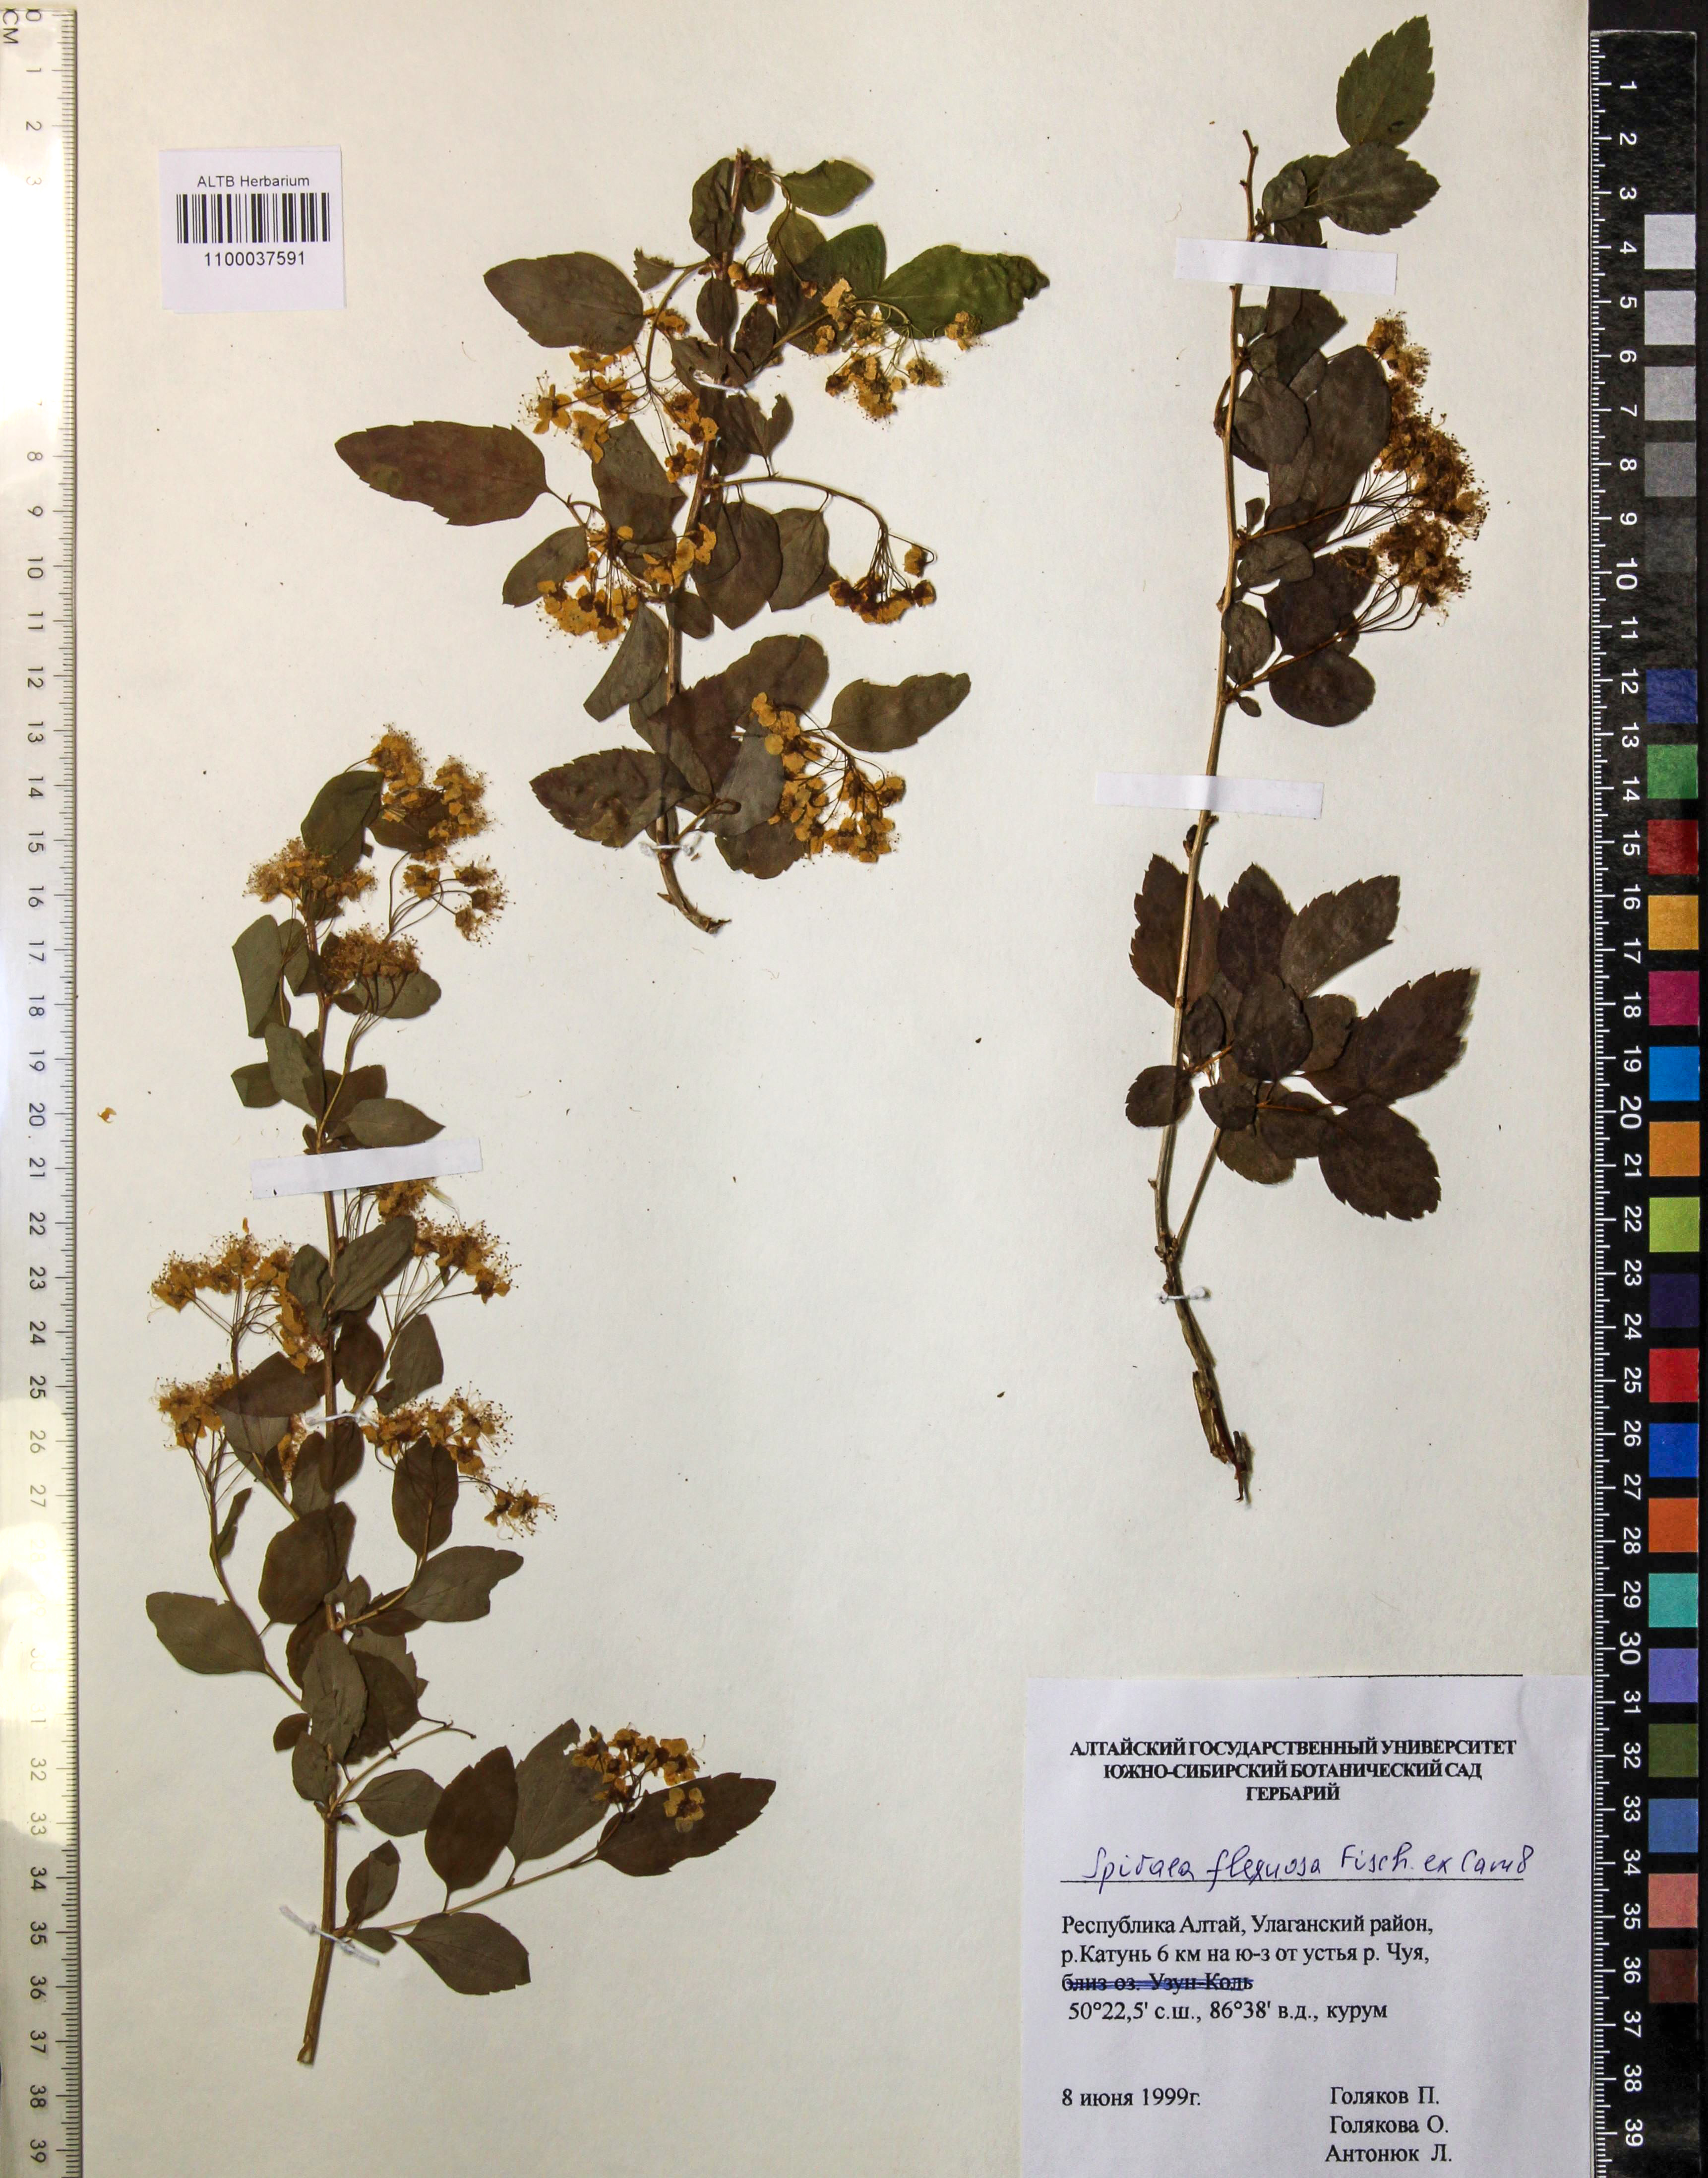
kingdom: Plantae
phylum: Tracheophyta
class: Magnoliopsida
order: Rosales
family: Rosaceae
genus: Spiraea
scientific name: Spiraea flexuosa
